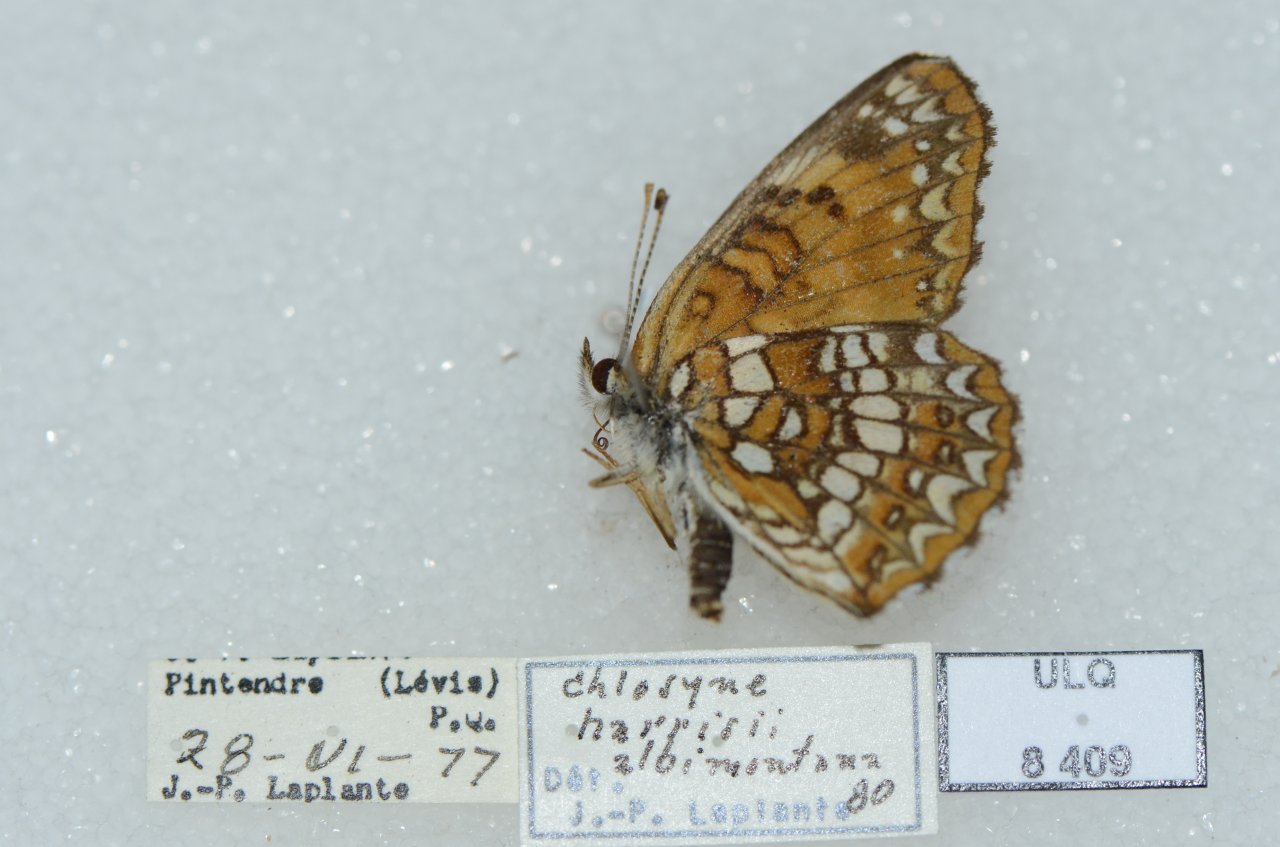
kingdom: Animalia
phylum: Arthropoda
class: Insecta
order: Lepidoptera
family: Nymphalidae
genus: Chlosyne
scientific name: Chlosyne harrisii
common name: Harris's Checkerspot
